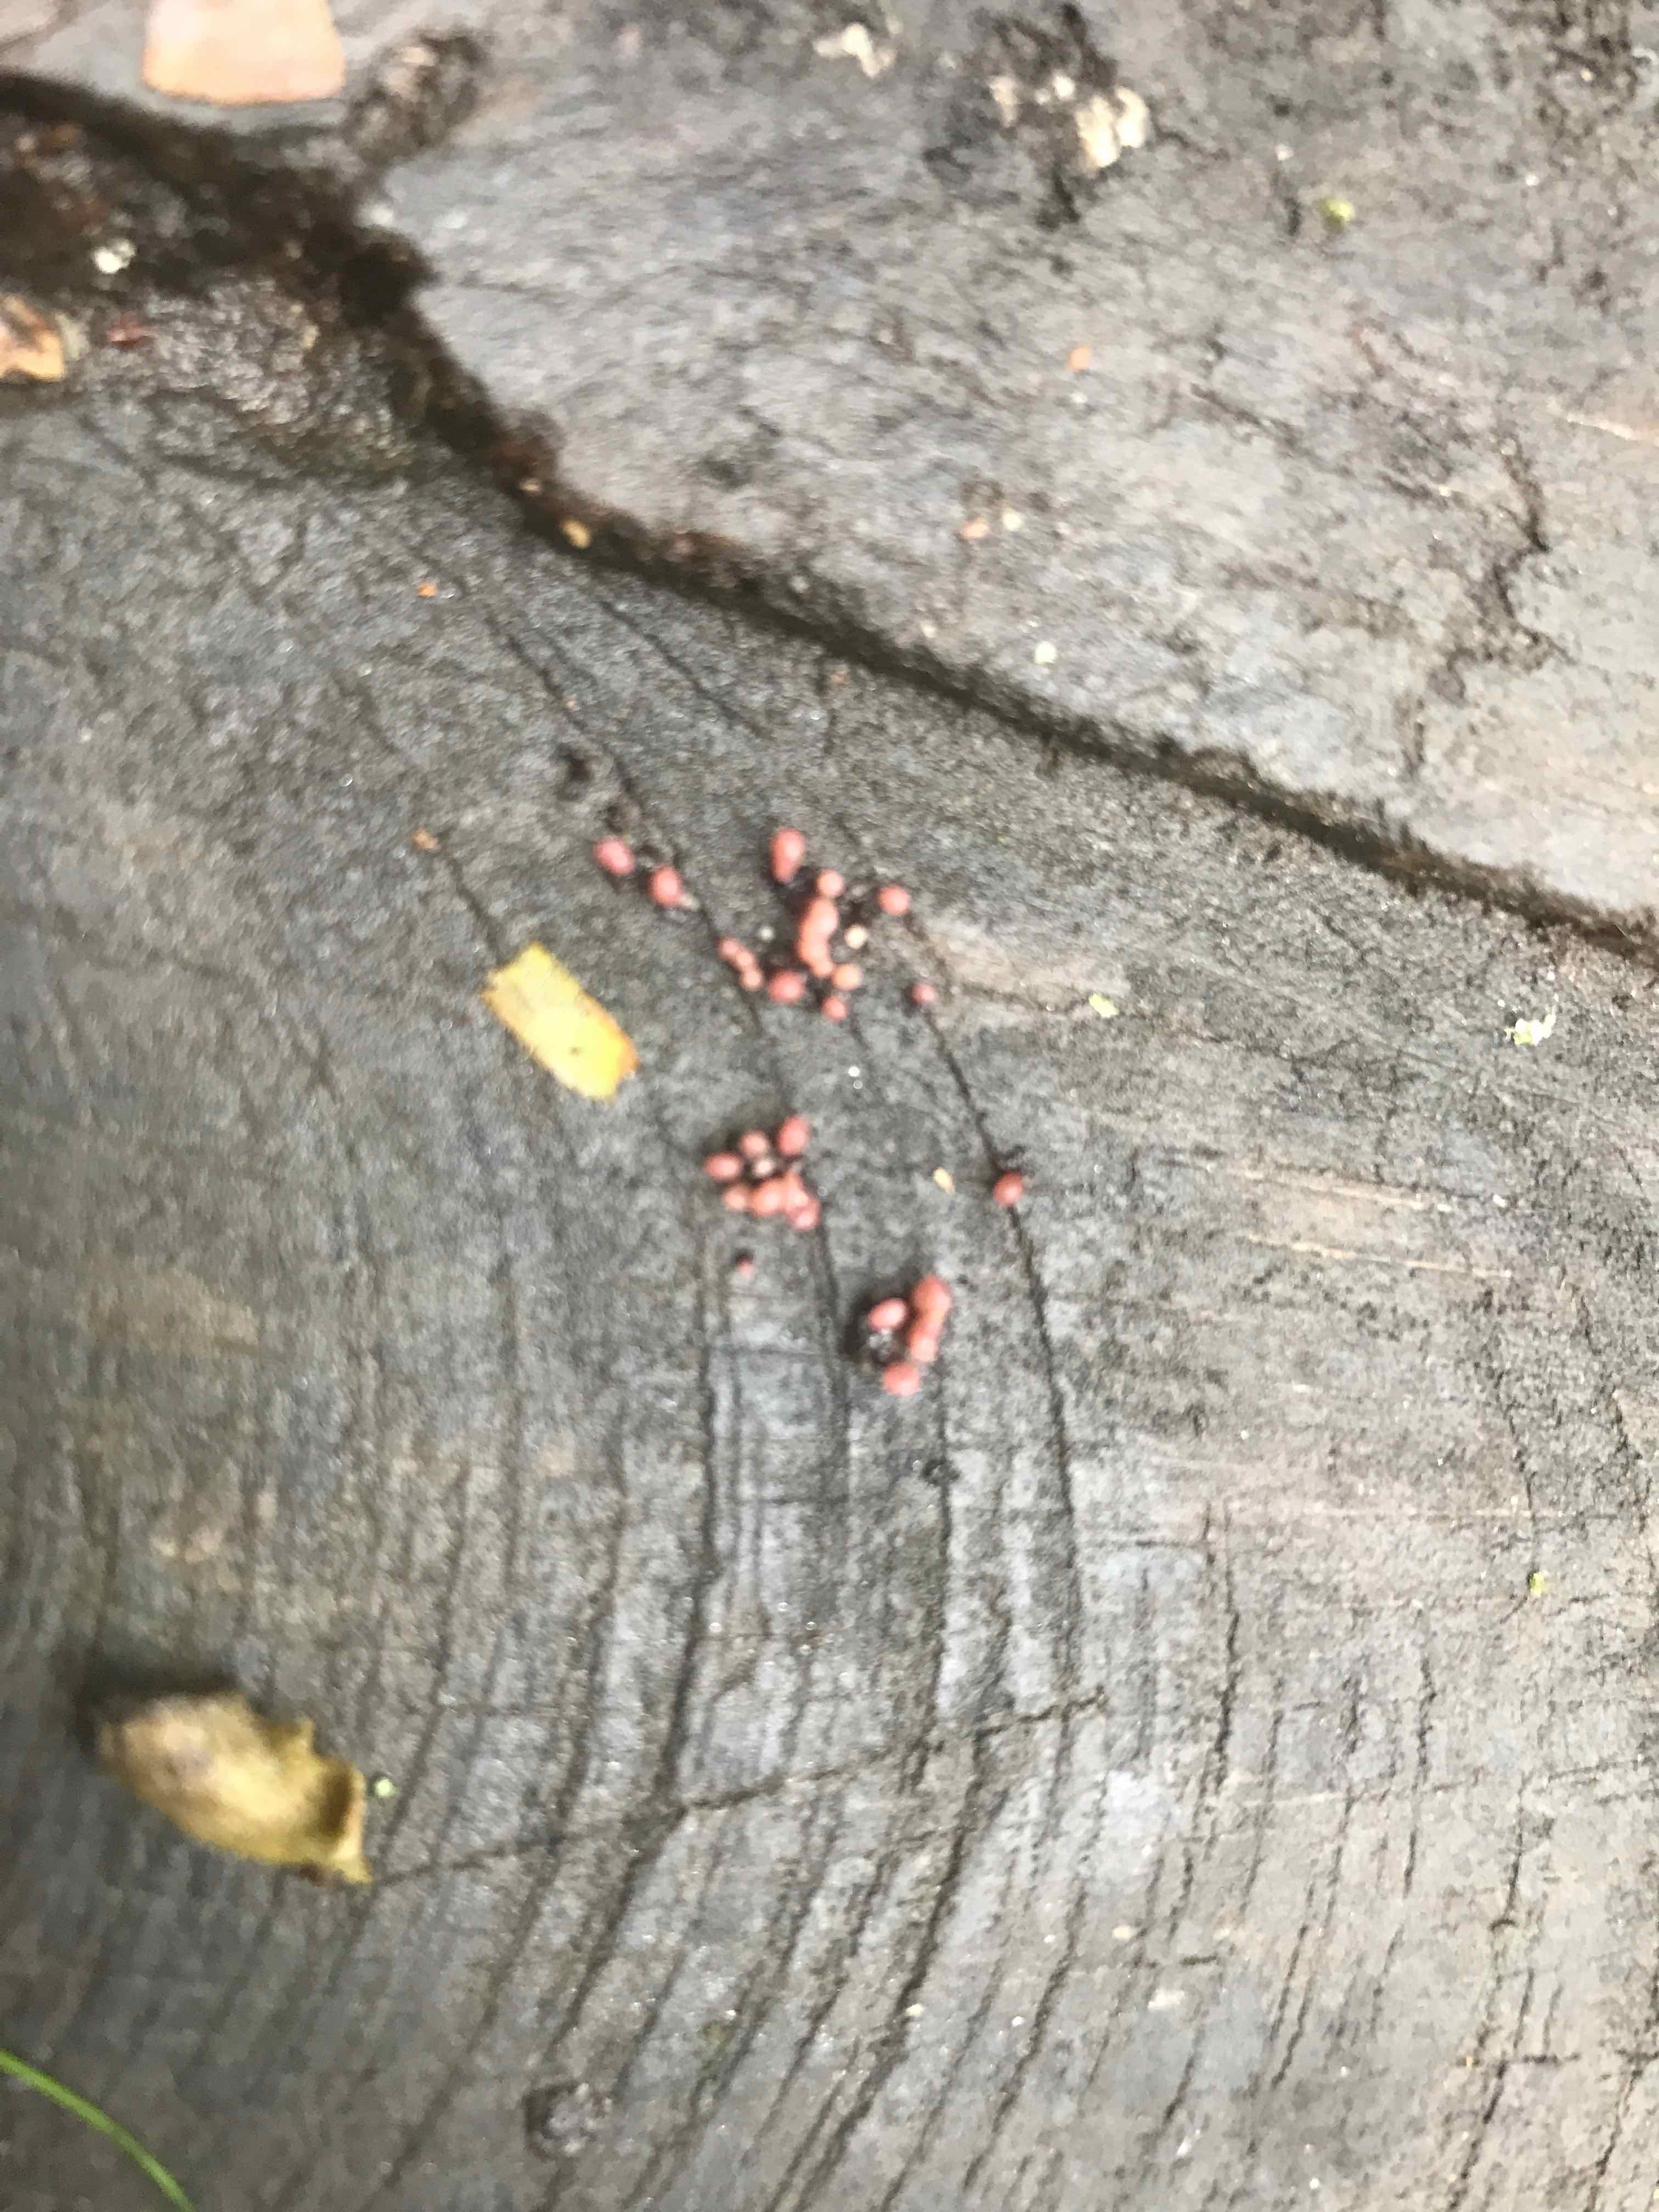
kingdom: Fungi
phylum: Ascomycota
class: Leotiomycetes
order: Helotiales
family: Gelatinodiscaceae
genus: Ascocoryne
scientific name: Ascocoryne sarcoides
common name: rødlilla sejskive
